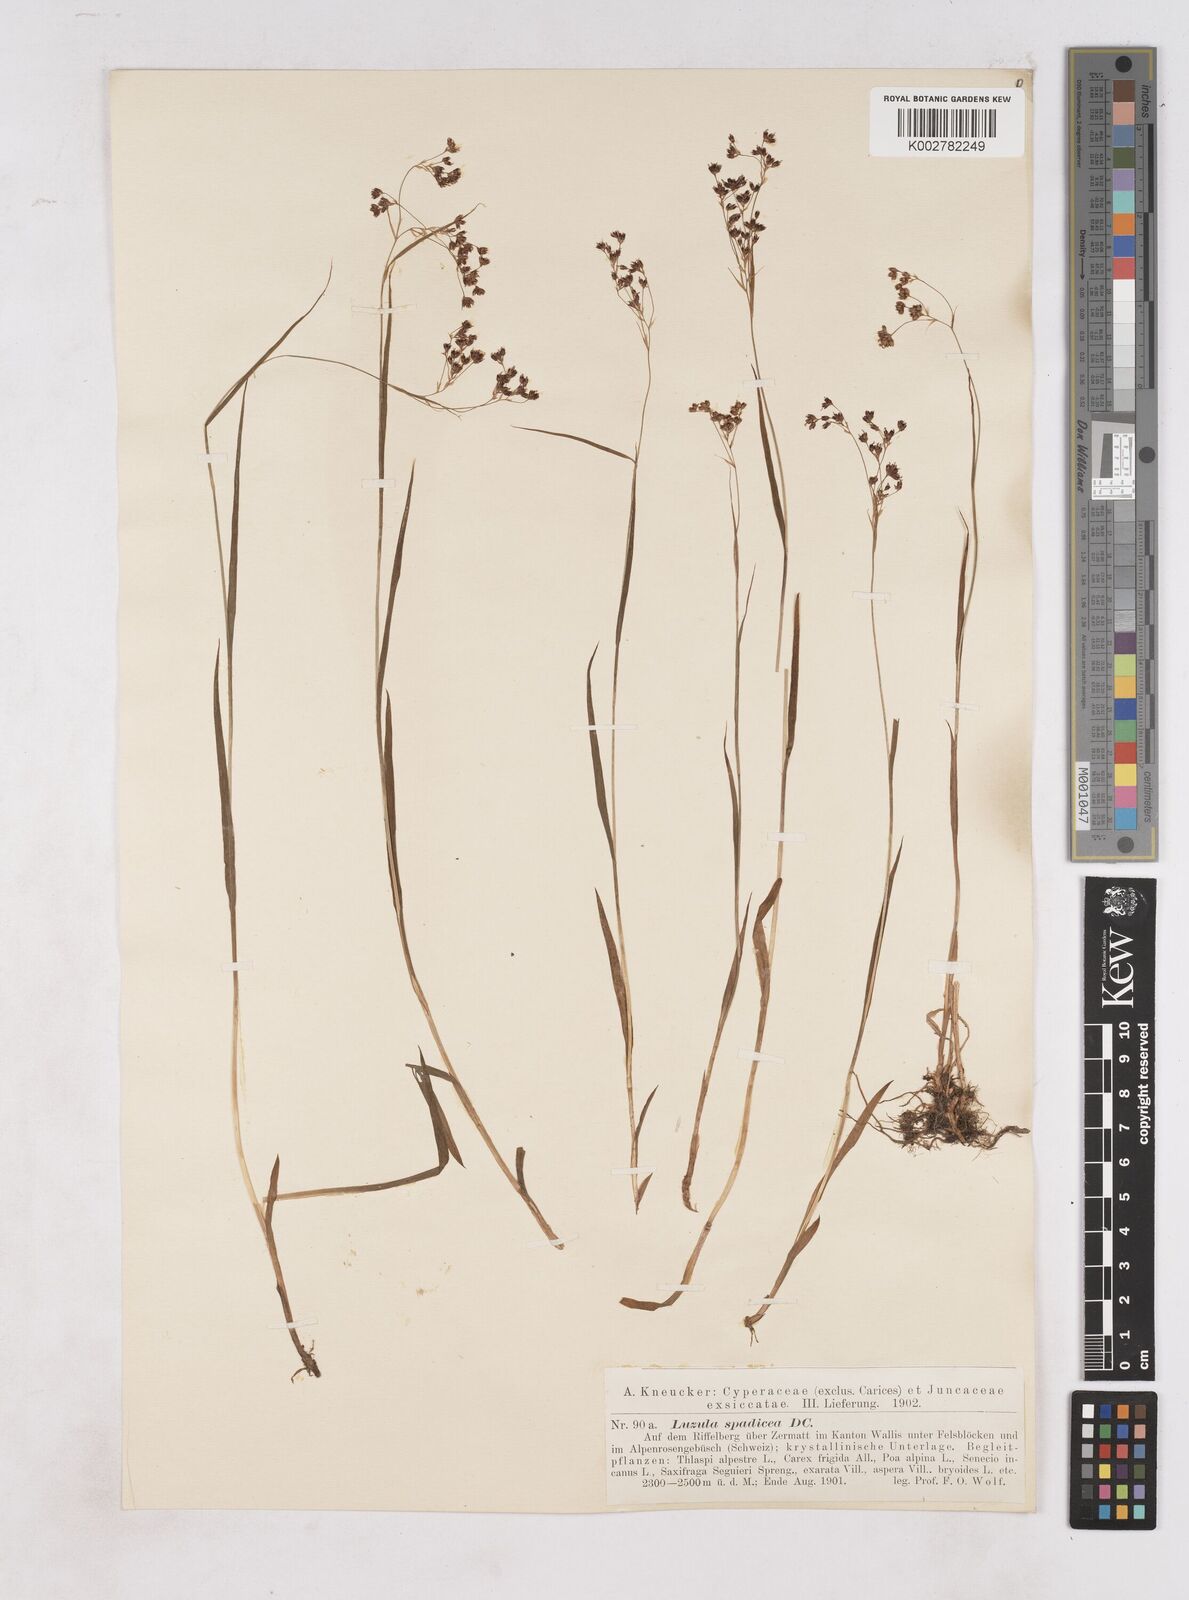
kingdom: Plantae
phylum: Tracheophyta
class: Liliopsida
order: Poales
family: Juncaceae
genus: Luzula
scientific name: Luzula alpinopilosa
